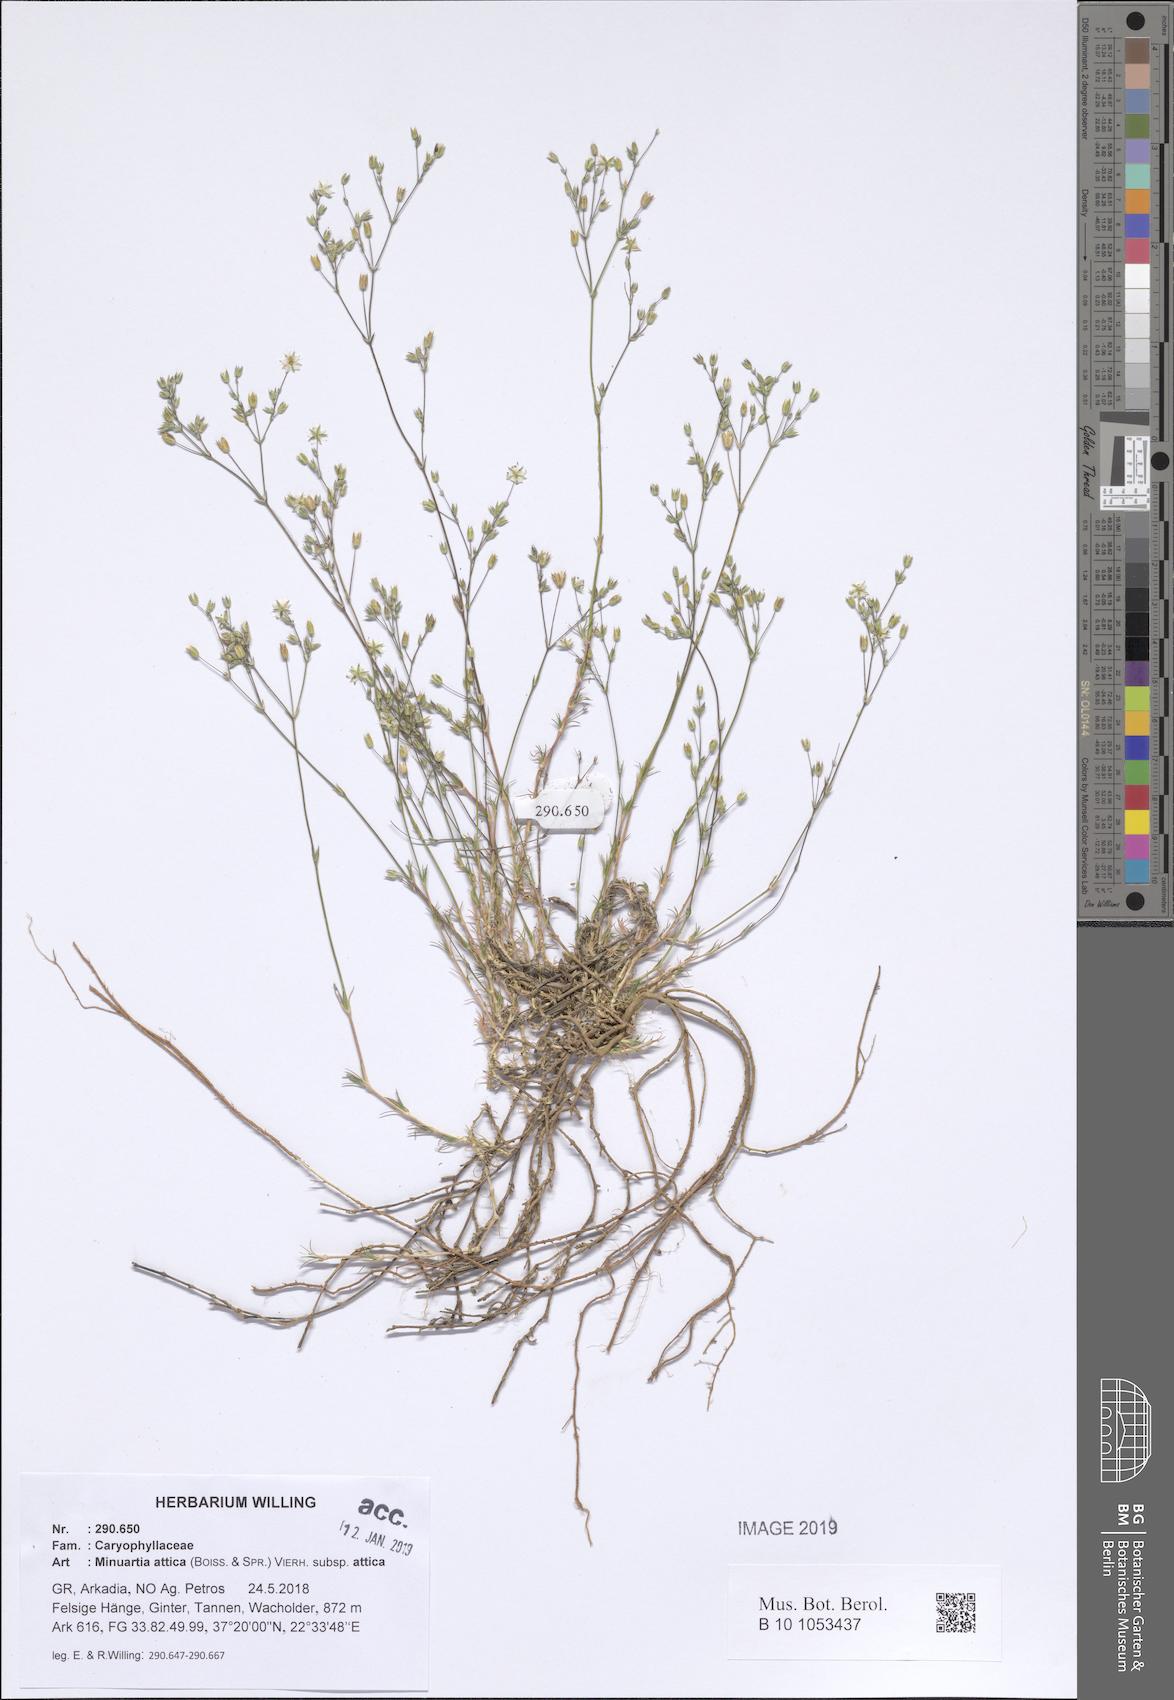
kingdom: Plantae
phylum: Tracheophyta
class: Magnoliopsida
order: Caryophyllales
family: Caryophyllaceae
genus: Sabulina
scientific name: Sabulina attica
